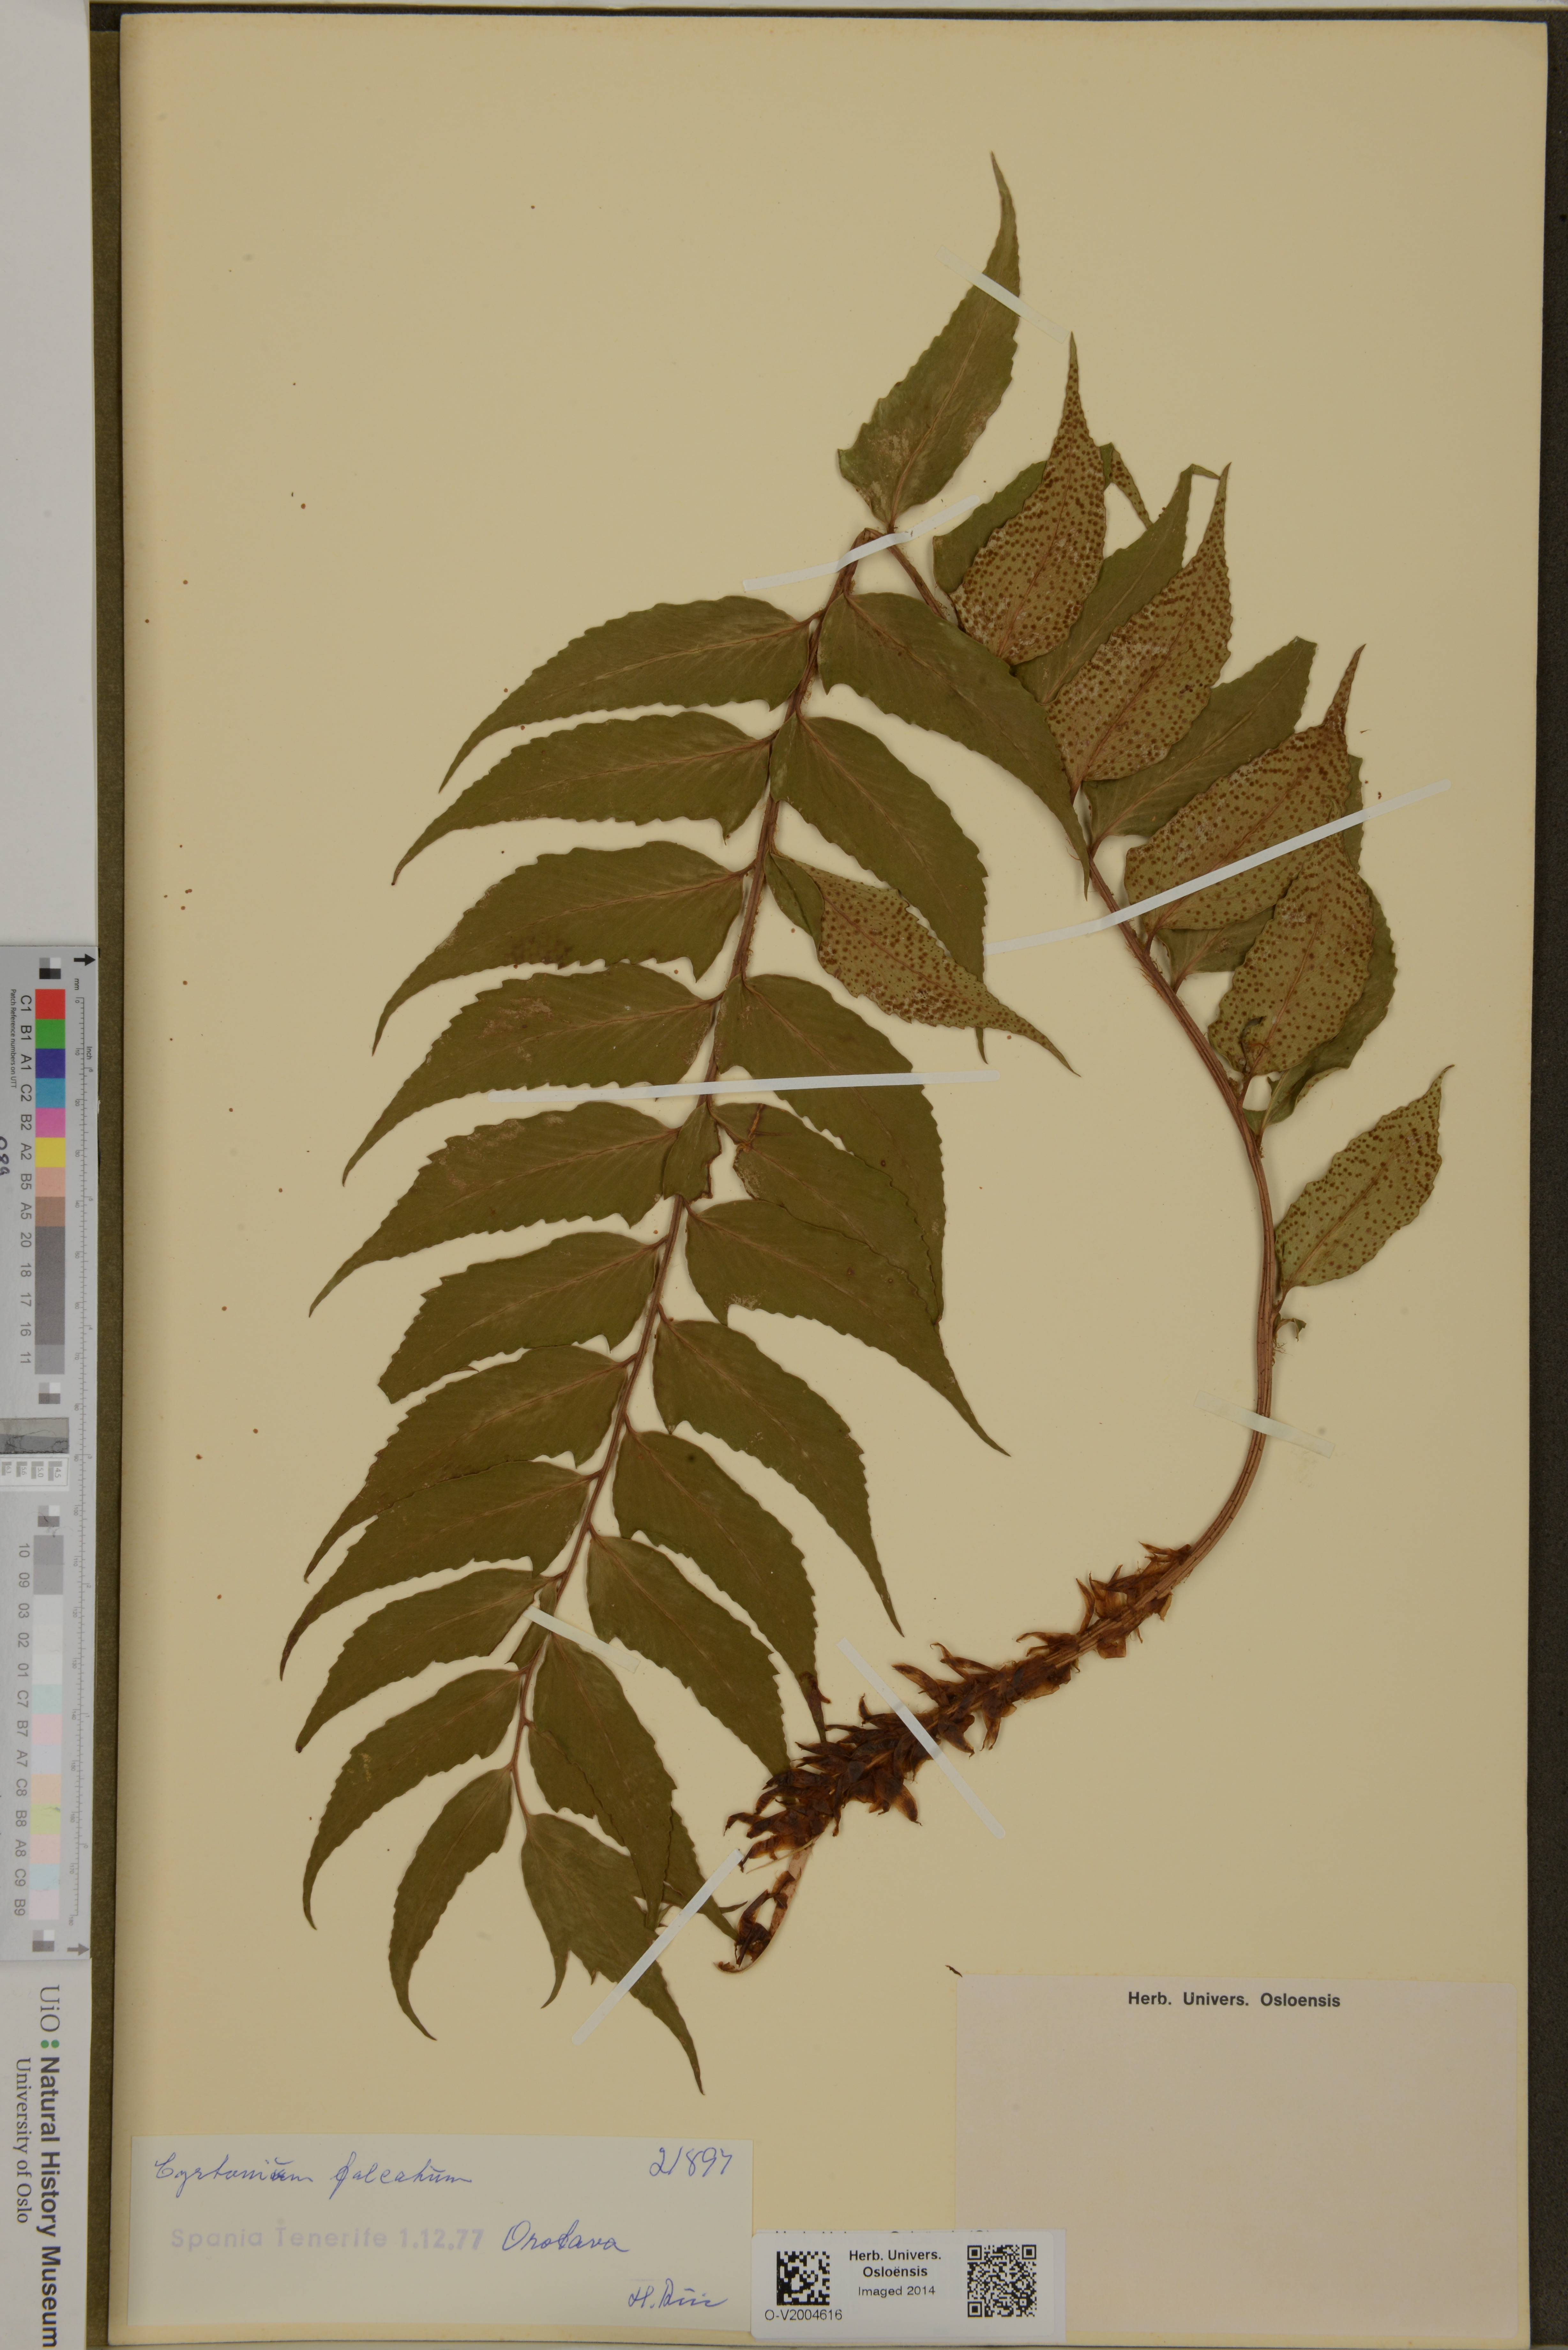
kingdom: Plantae
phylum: Tracheophyta
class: Polypodiopsida
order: Polypodiales
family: Dryopteridaceae
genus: Cyrtomium
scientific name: Cyrtomium falcatum
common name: House holly-fern
